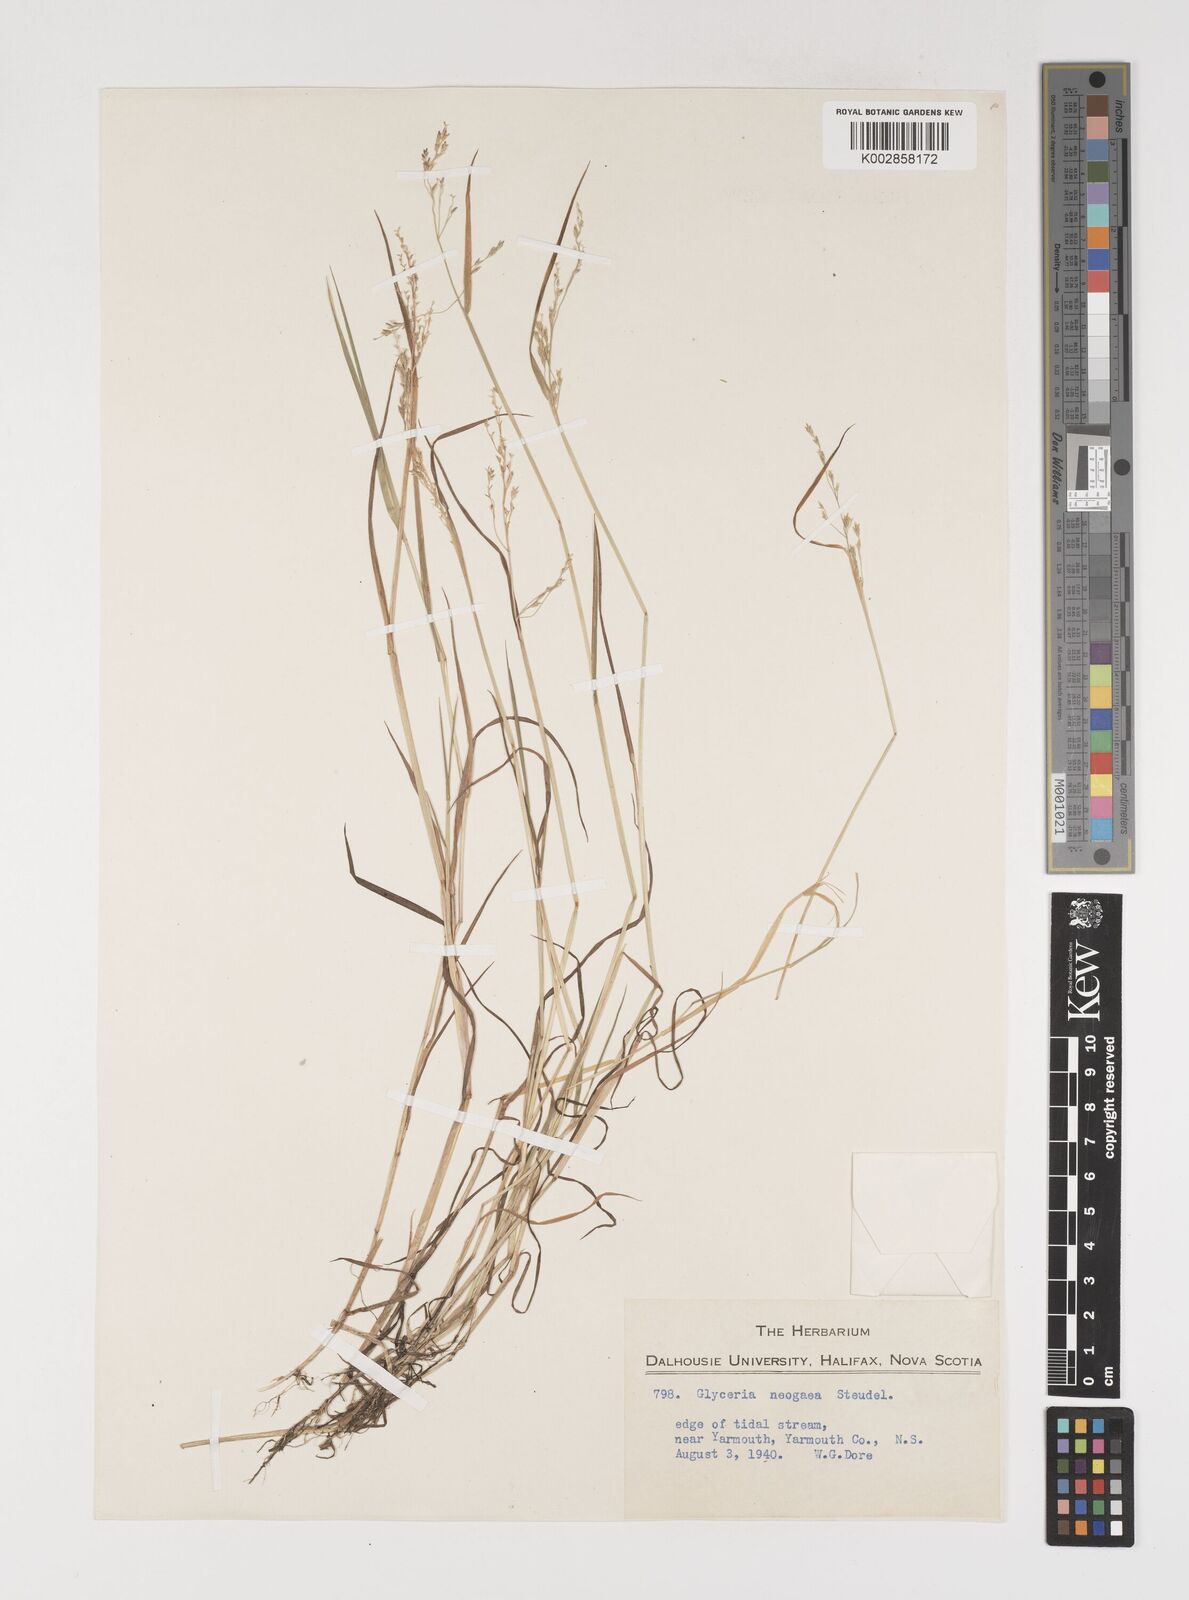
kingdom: Plantae
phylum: Tracheophyta
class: Liliopsida
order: Poales
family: Poaceae
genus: Torreyochloa
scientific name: Torreyochloa pallida
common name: Pale false mannagrass
